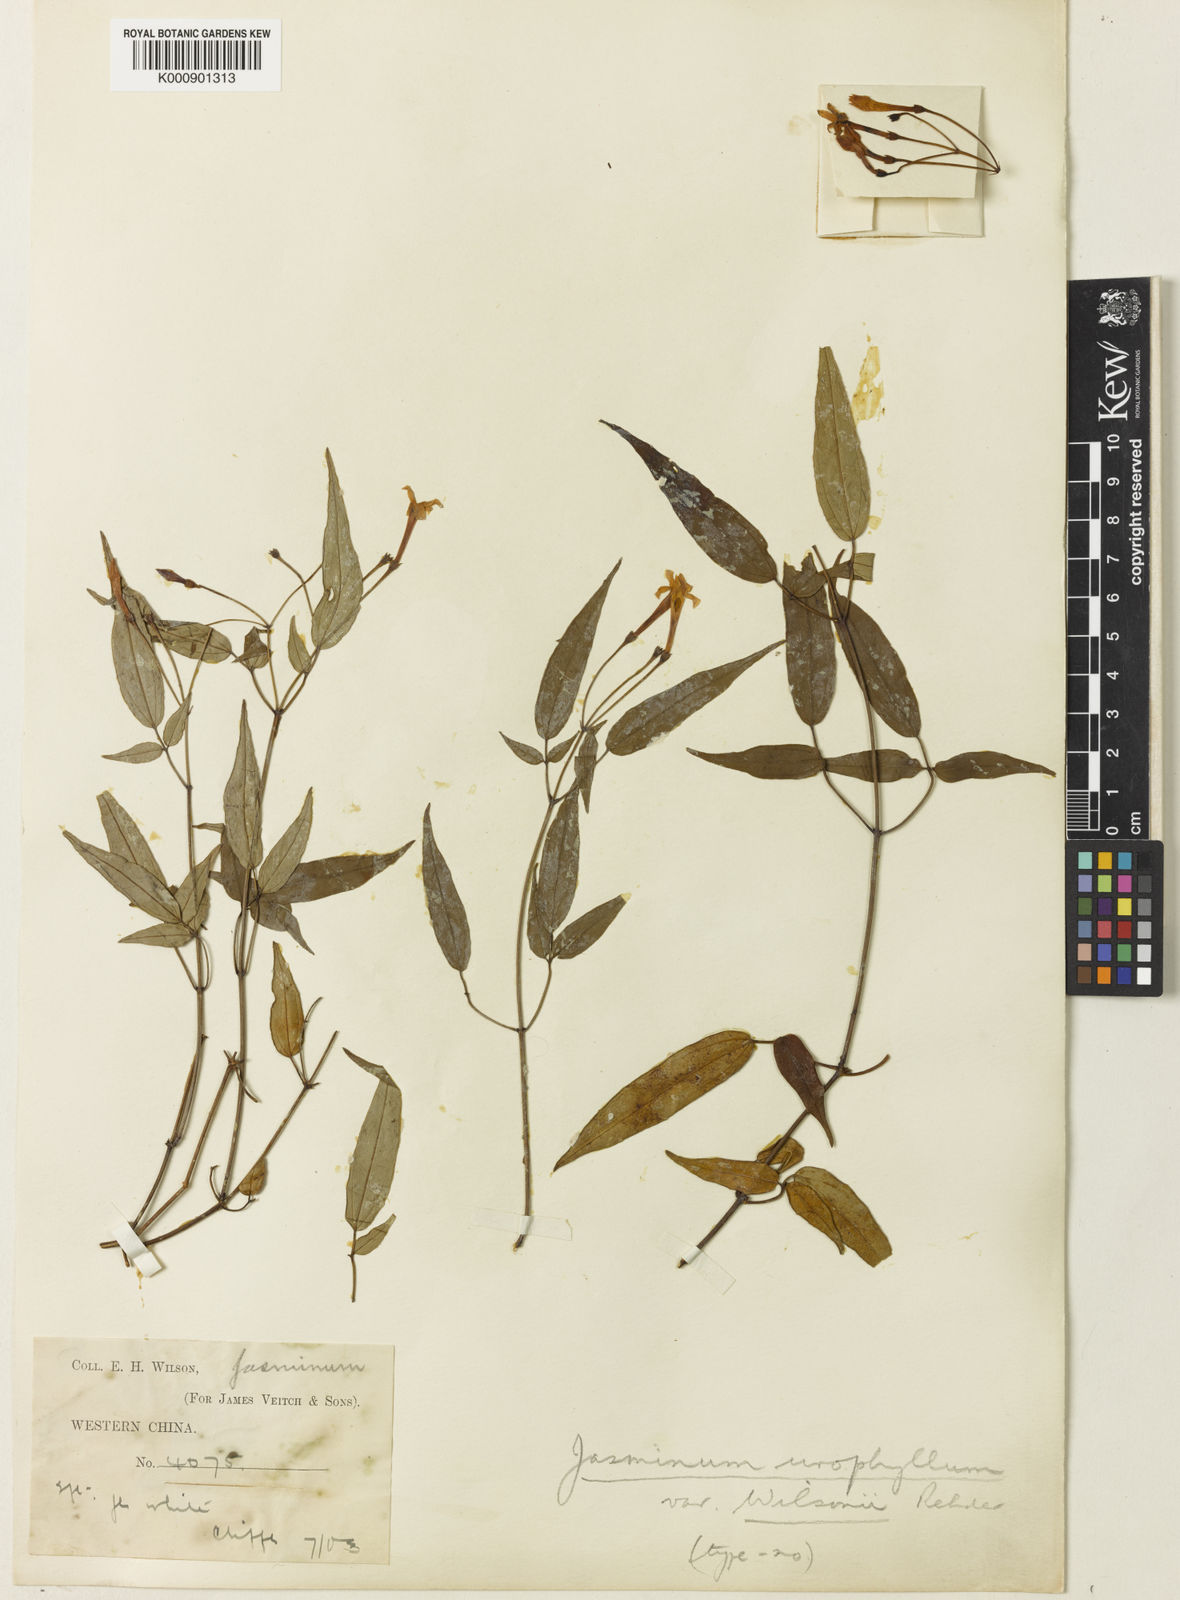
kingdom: Plantae
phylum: Tracheophyta
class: Magnoliopsida
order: Lamiales
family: Oleaceae
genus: Jasminum
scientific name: Jasminum urophyllum
